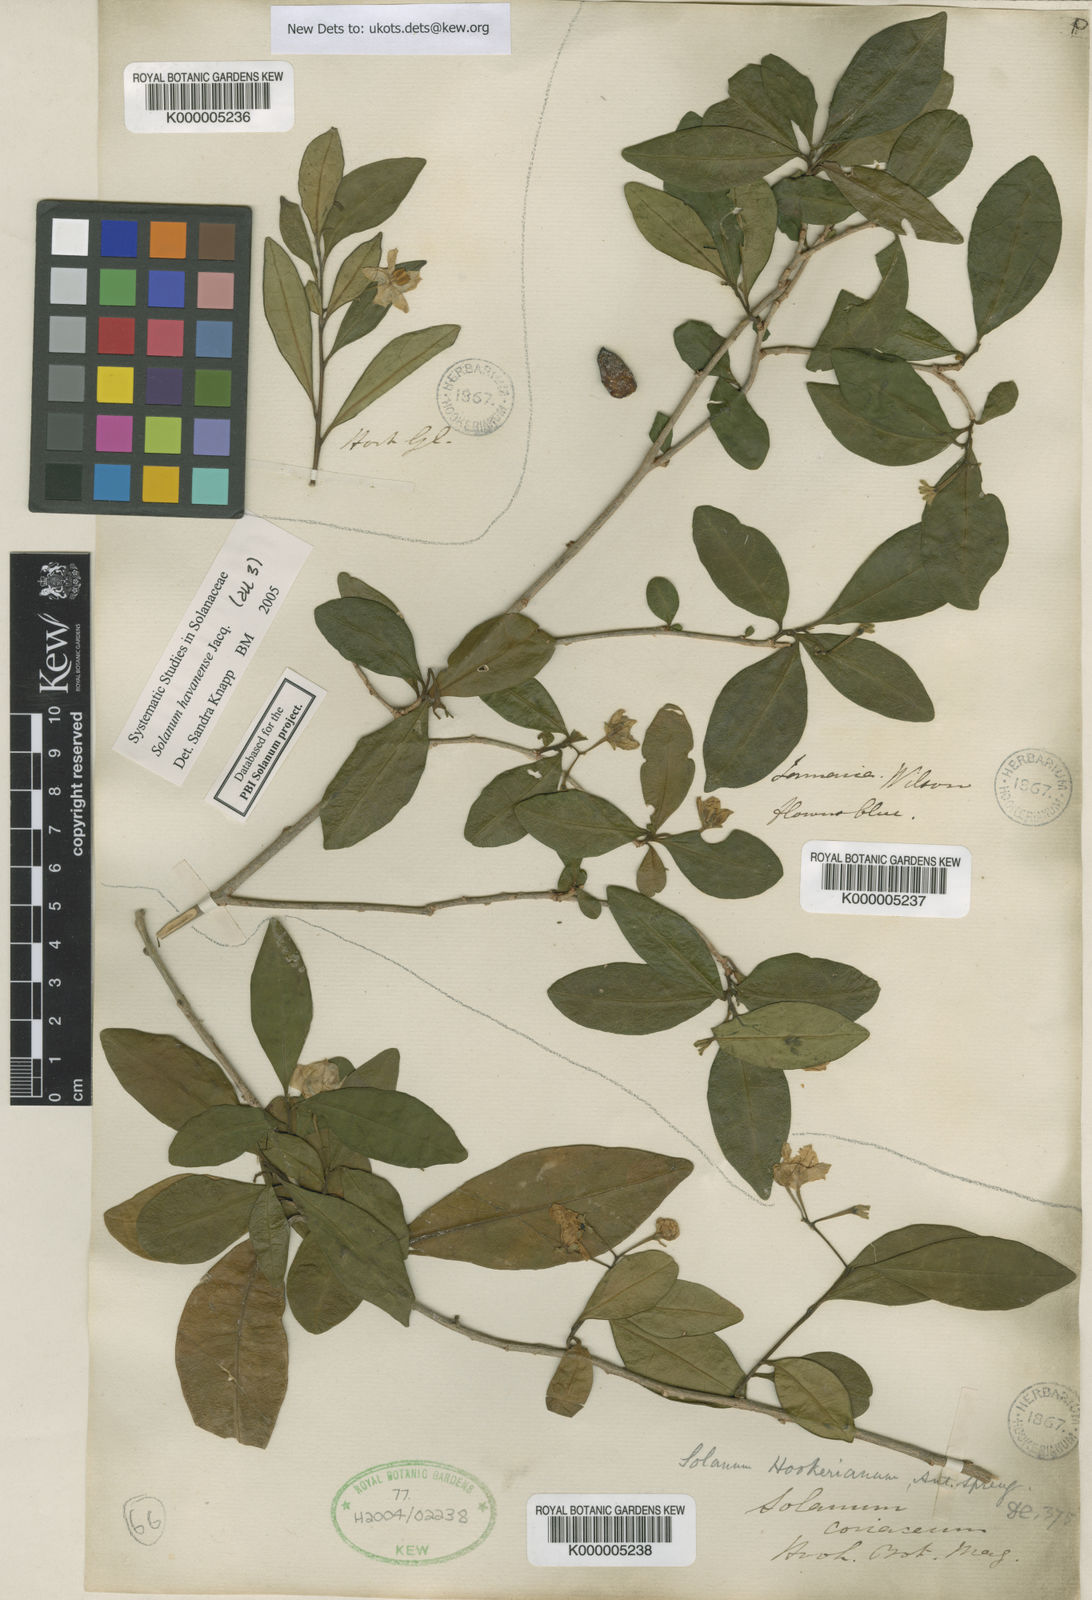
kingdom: Plantae
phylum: Tracheophyta
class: Magnoliopsida
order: Solanales
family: Solanaceae
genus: Solanum
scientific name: Solanum havanense
